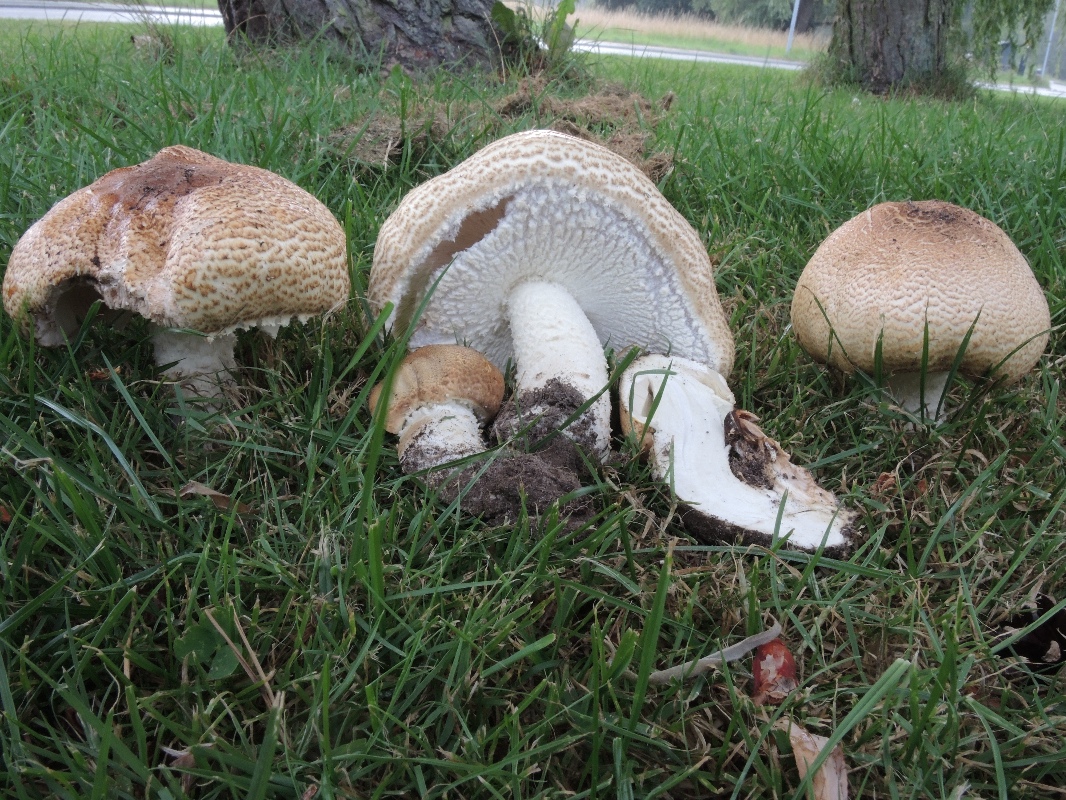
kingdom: Fungi
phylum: Basidiomycota
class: Agaricomycetes
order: Agaricales
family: Agaricaceae
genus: Agaricus
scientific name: Agaricus augustus
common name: prægtig champignon
